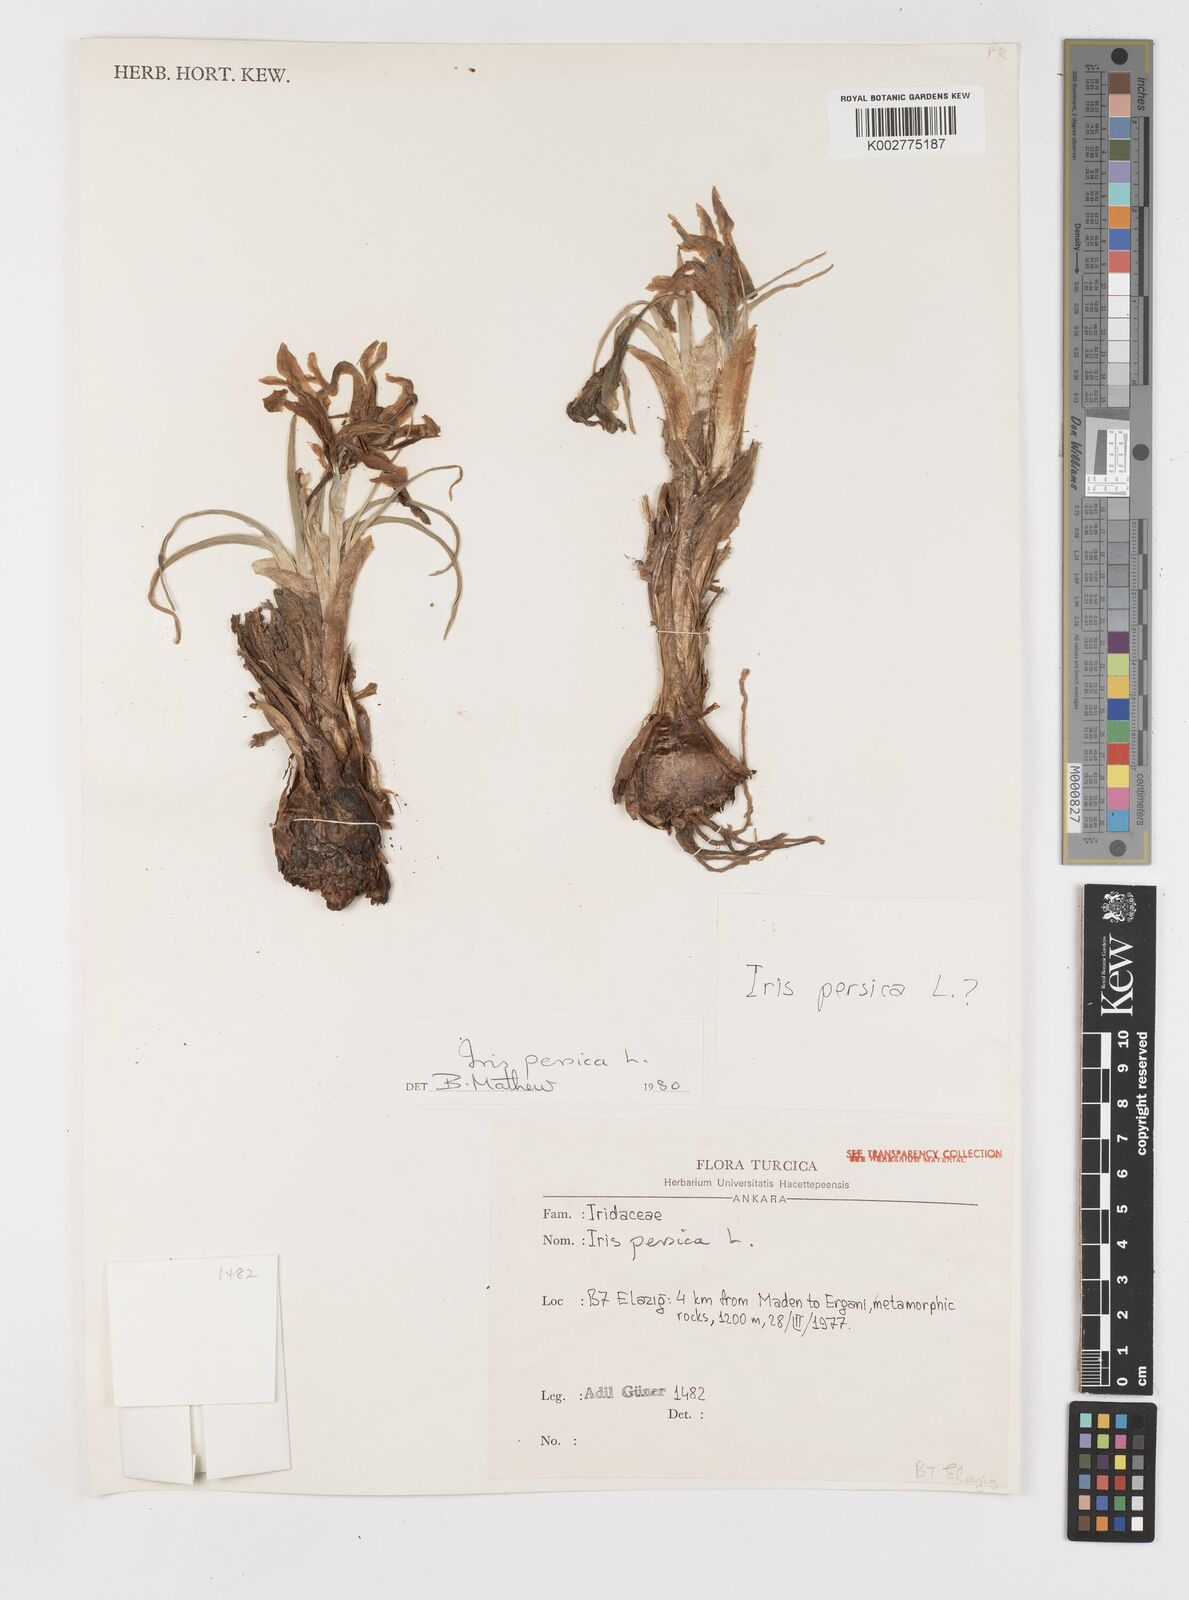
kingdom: Plantae
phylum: Tracheophyta
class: Liliopsida
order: Asparagales
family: Iridaceae
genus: Iris
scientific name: Iris persica
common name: Persian iris
